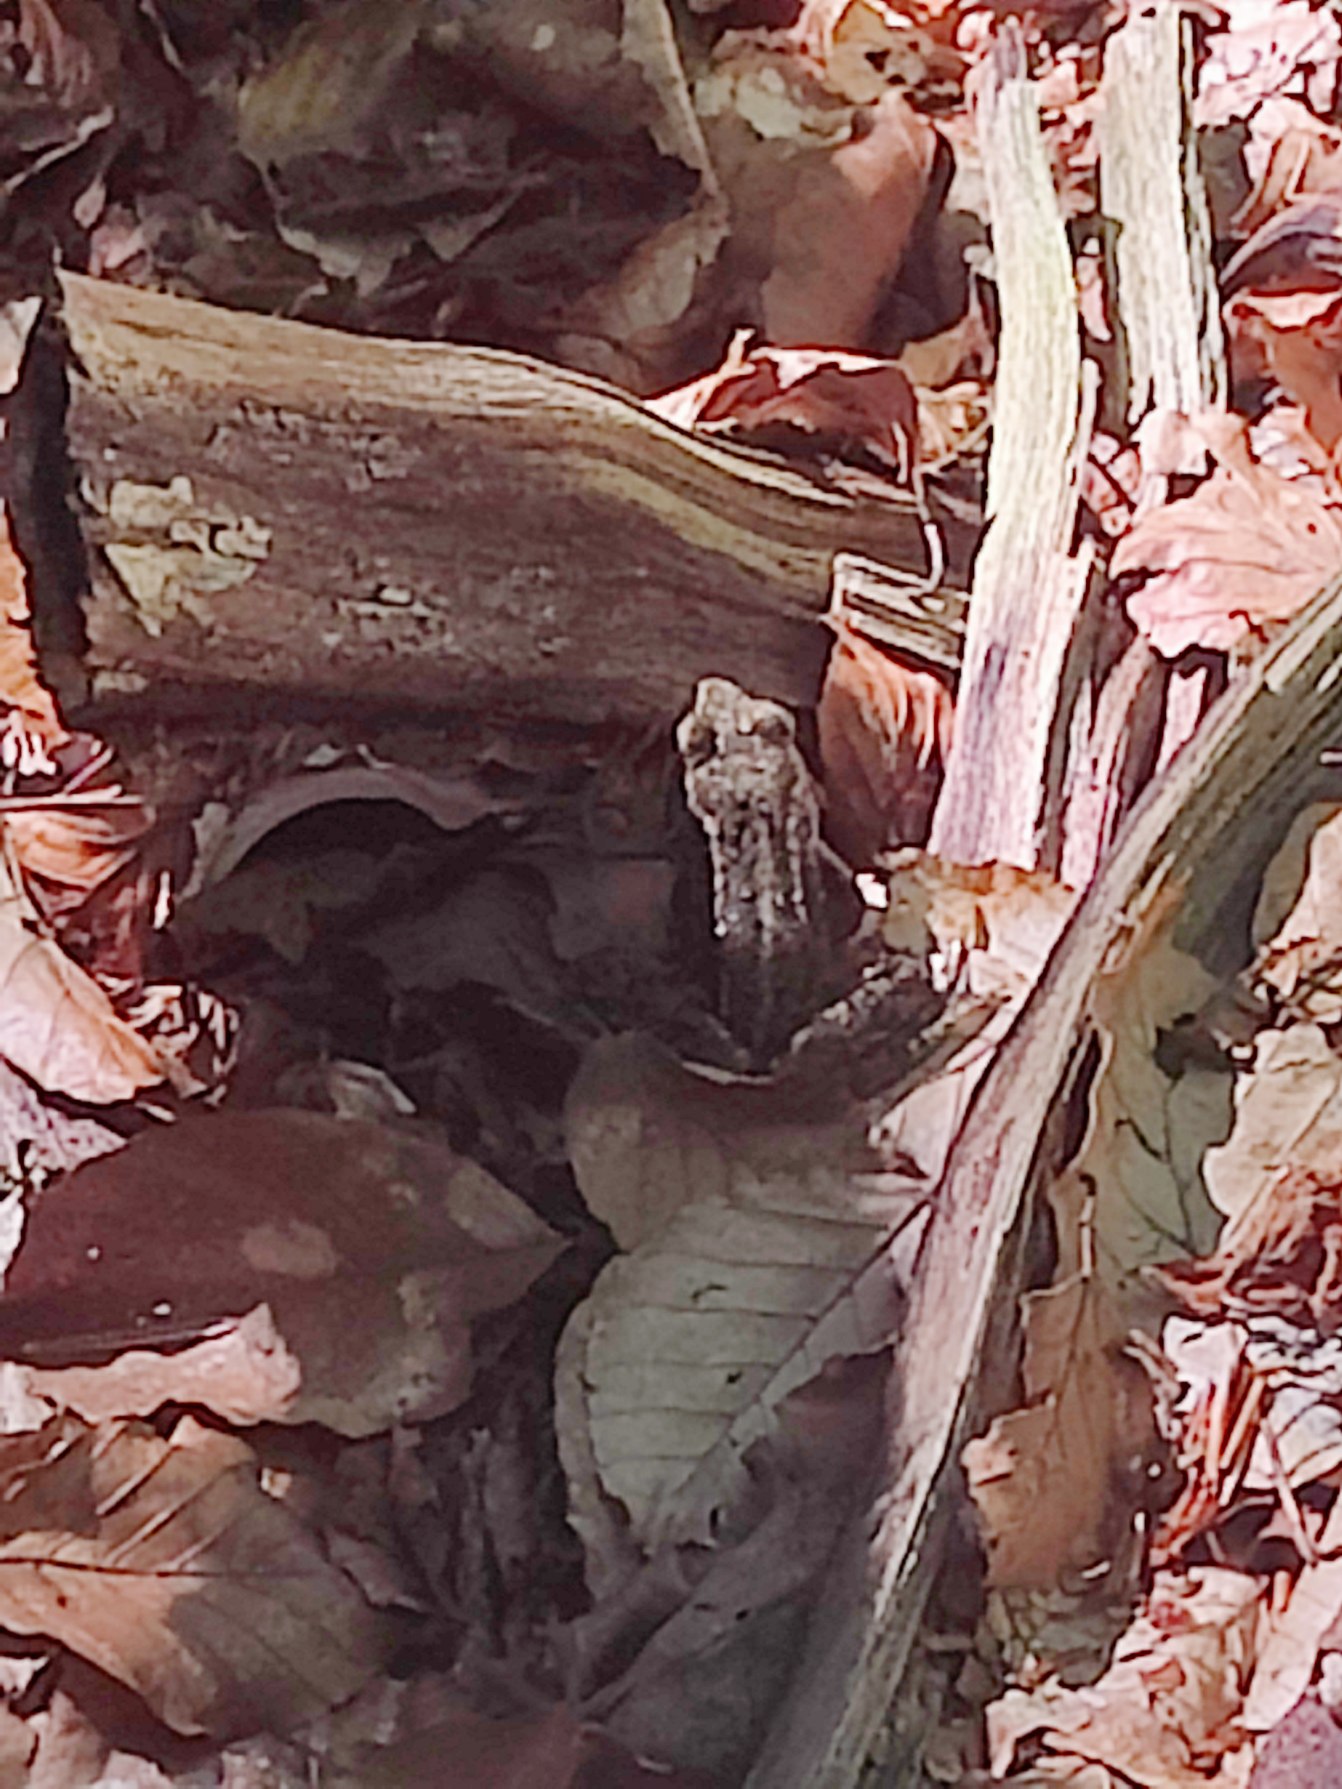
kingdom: Animalia
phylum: Chordata
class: Amphibia
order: Anura
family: Ranidae
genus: Rana
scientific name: Rana temporaria
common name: Butsnudet frø
